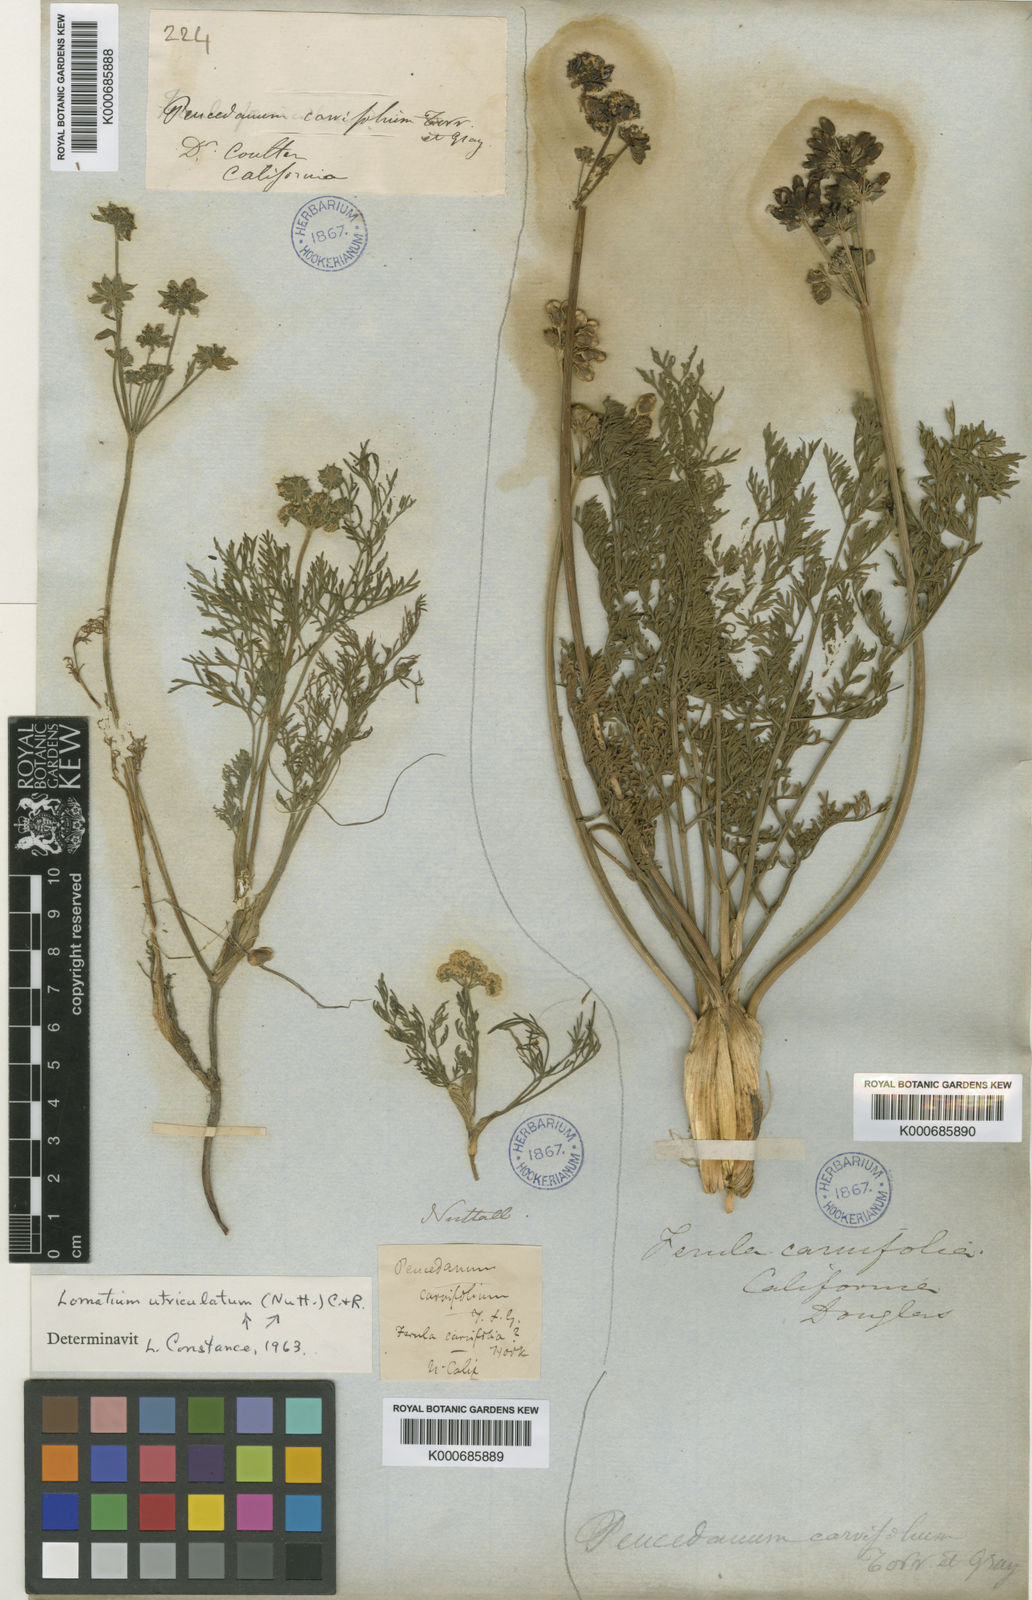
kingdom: Plantae
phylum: Tracheophyta
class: Magnoliopsida
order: Apiales
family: Apiaceae
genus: Lomatium
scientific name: Lomatium caruifolium
